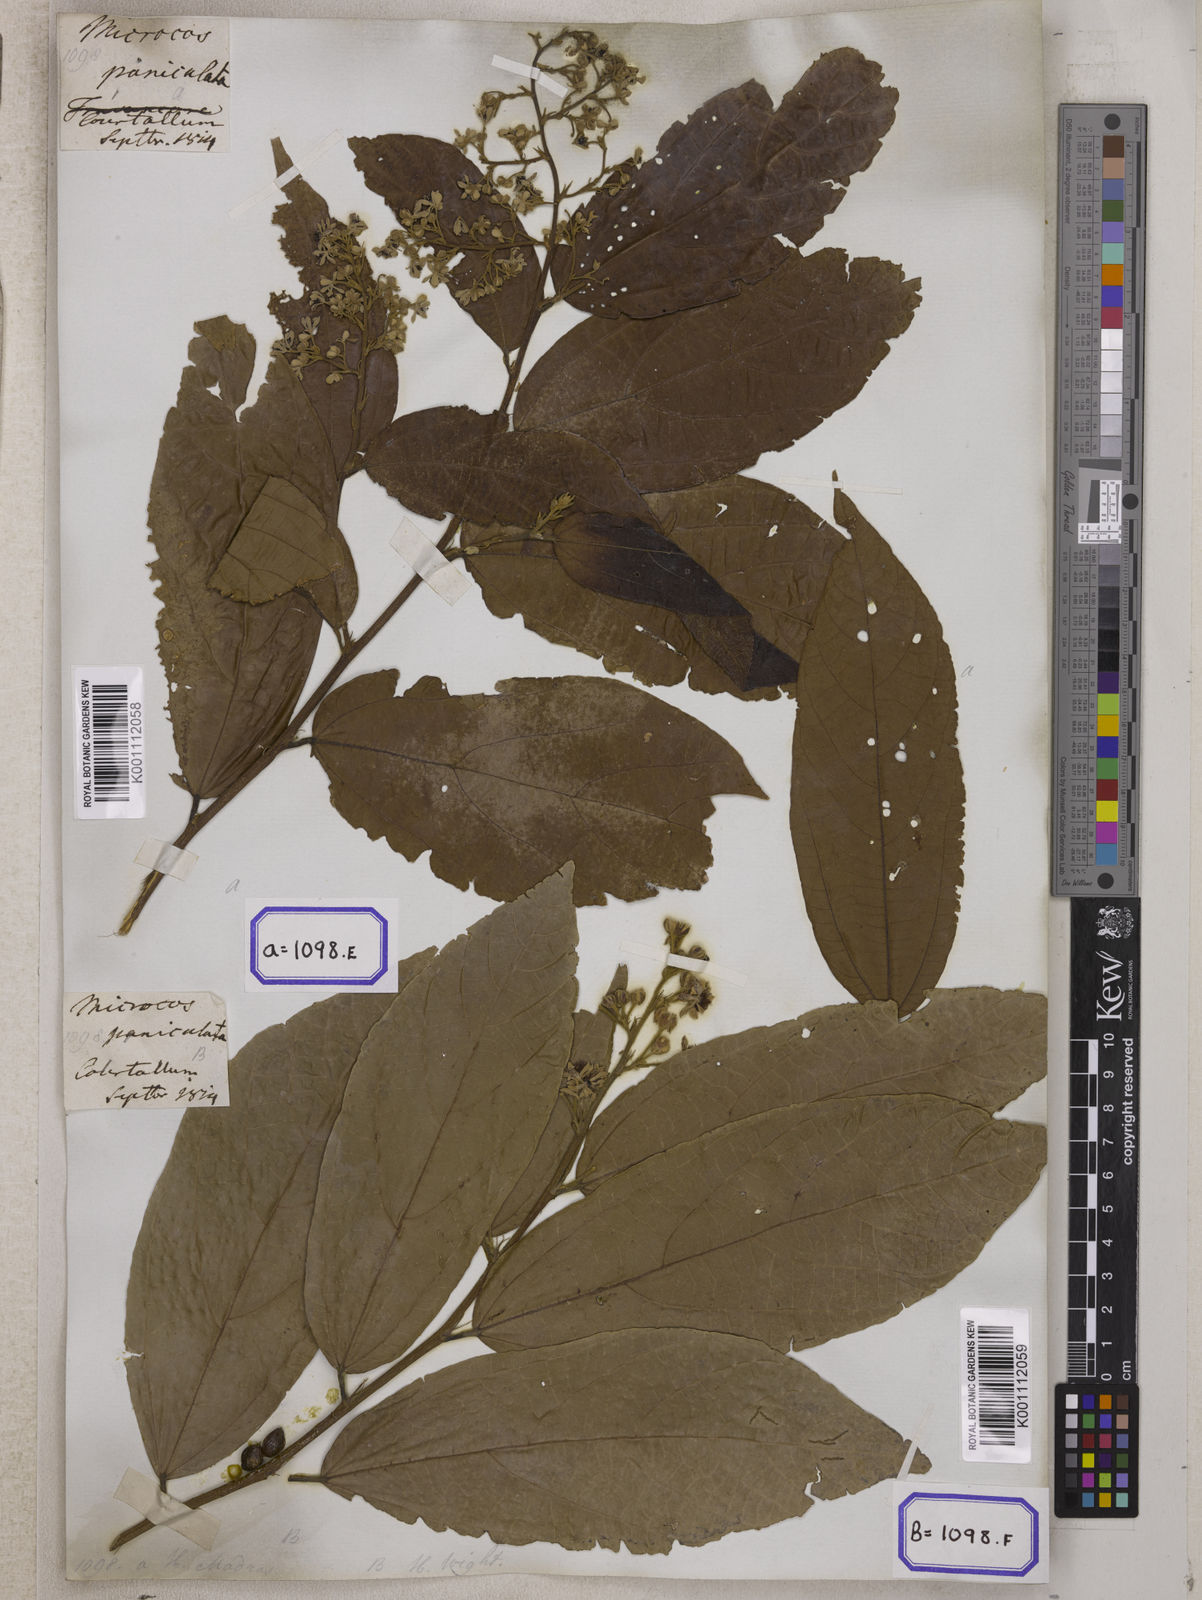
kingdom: Plantae
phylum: Tracheophyta
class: Magnoliopsida
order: Malvales
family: Malvaceae
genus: Microcos
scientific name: Microcos paniculata
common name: Microcos
